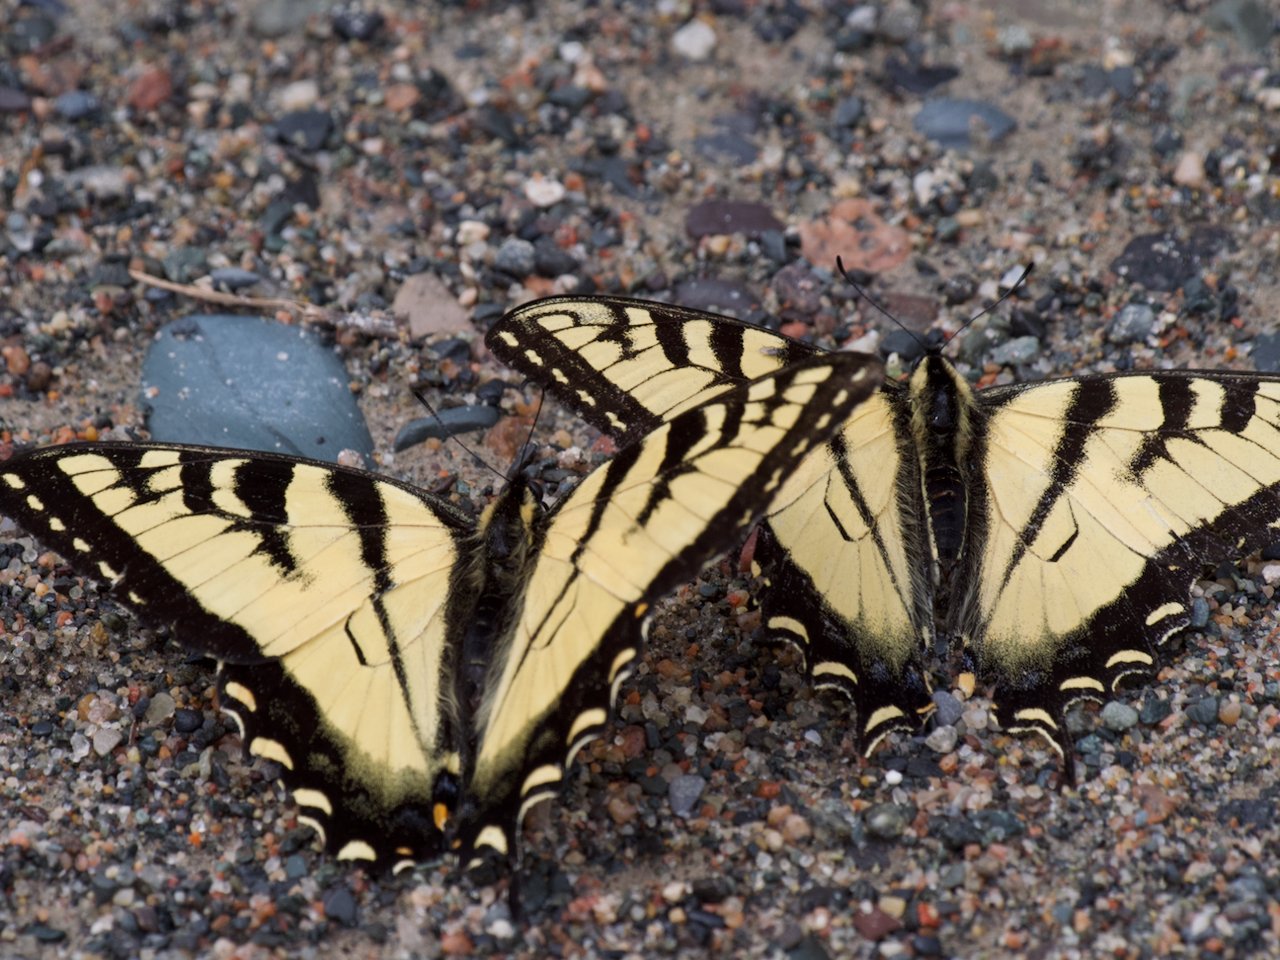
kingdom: Animalia
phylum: Arthropoda
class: Insecta
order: Lepidoptera
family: Papilionidae
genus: Pterourus
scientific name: Pterourus canadensis
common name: Canadian Tiger Swallowtail
